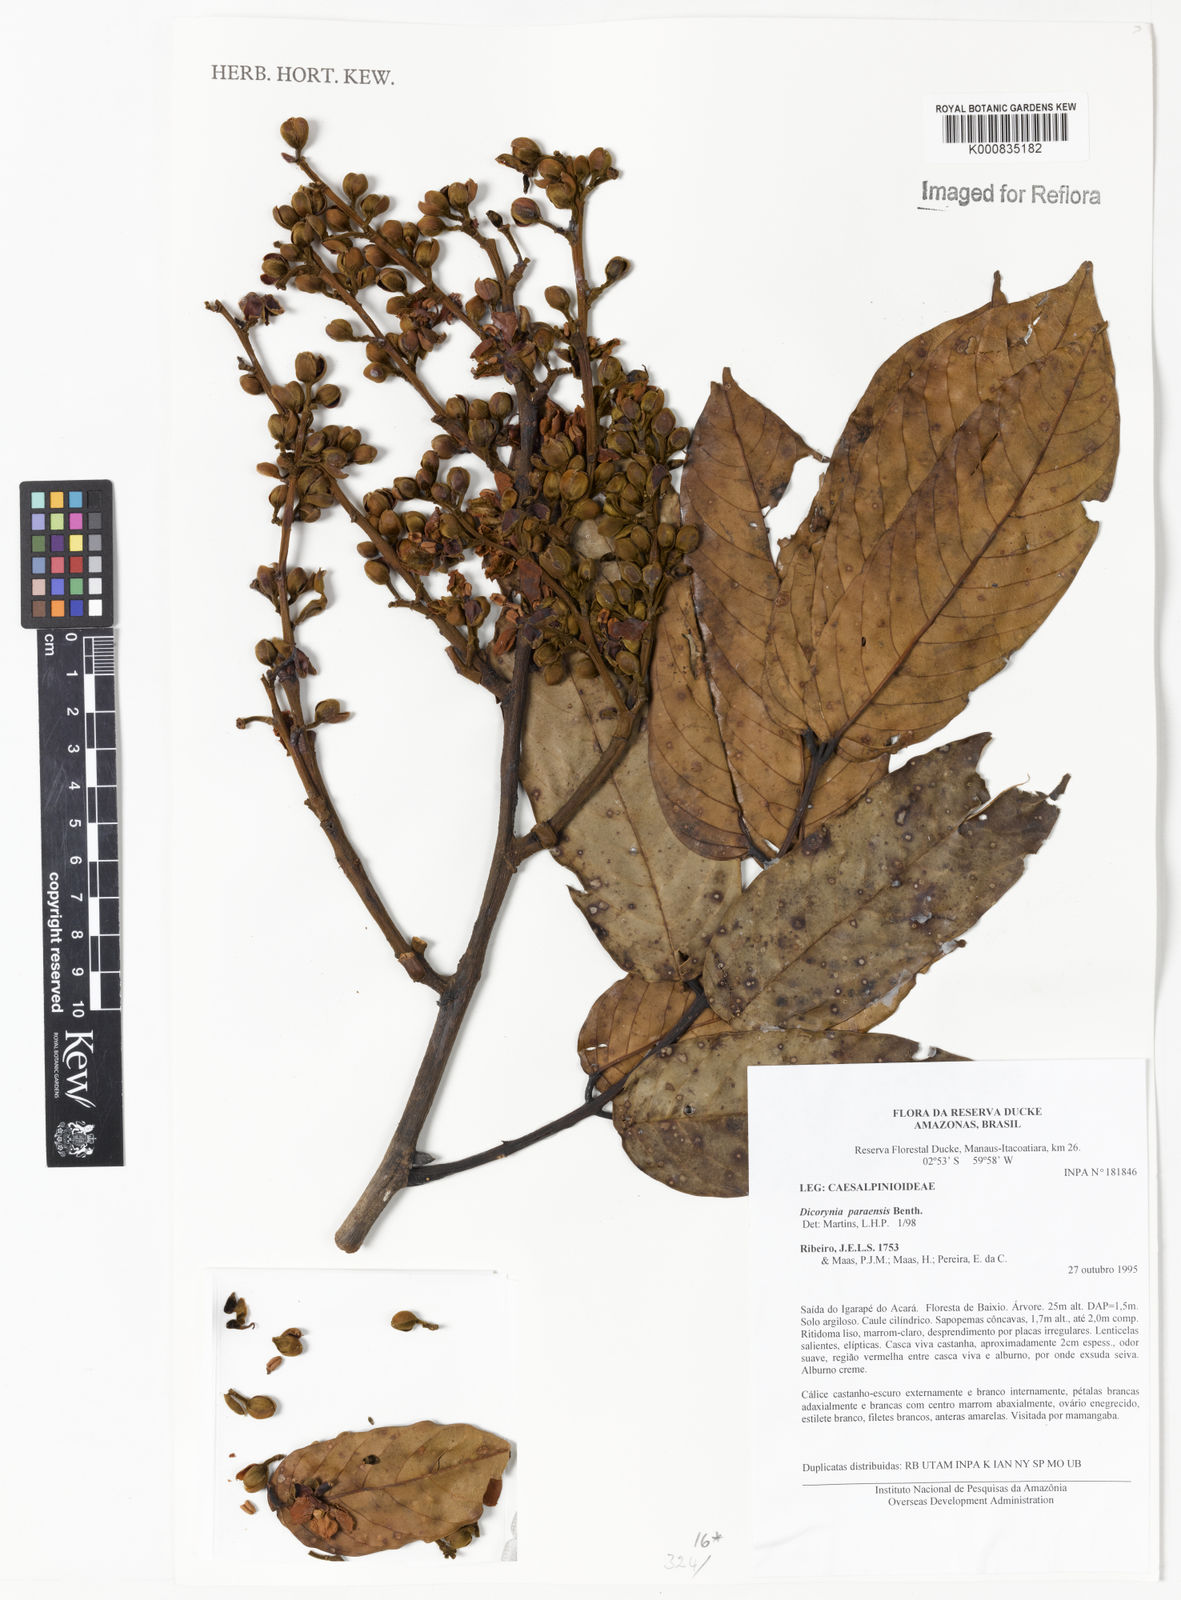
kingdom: Plantae
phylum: Tracheophyta
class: Magnoliopsida
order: Fabales
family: Fabaceae
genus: Dicorynia
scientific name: Dicorynia paraensis
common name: Angelique
